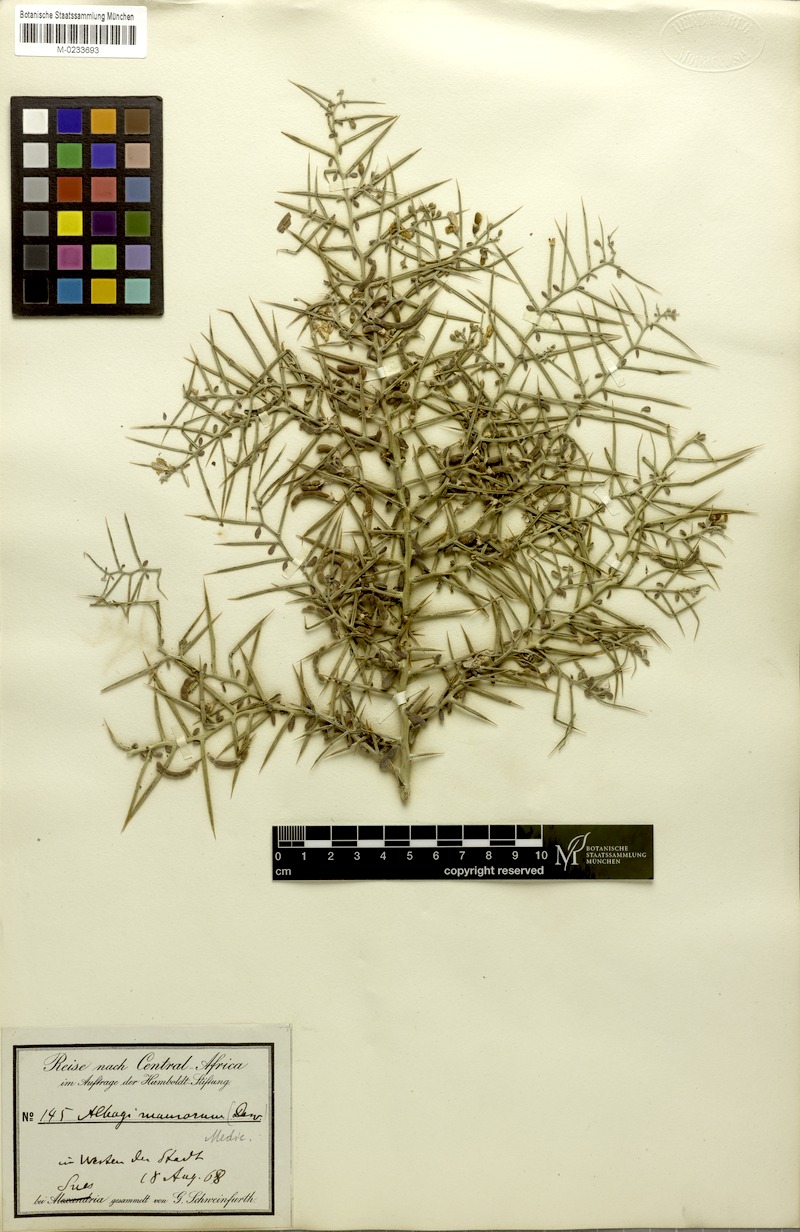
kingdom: Plantae
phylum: Tracheophyta
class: Magnoliopsida
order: Fabales
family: Fabaceae
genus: Alhagi
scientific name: Alhagi maurorum
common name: Camelthorn
